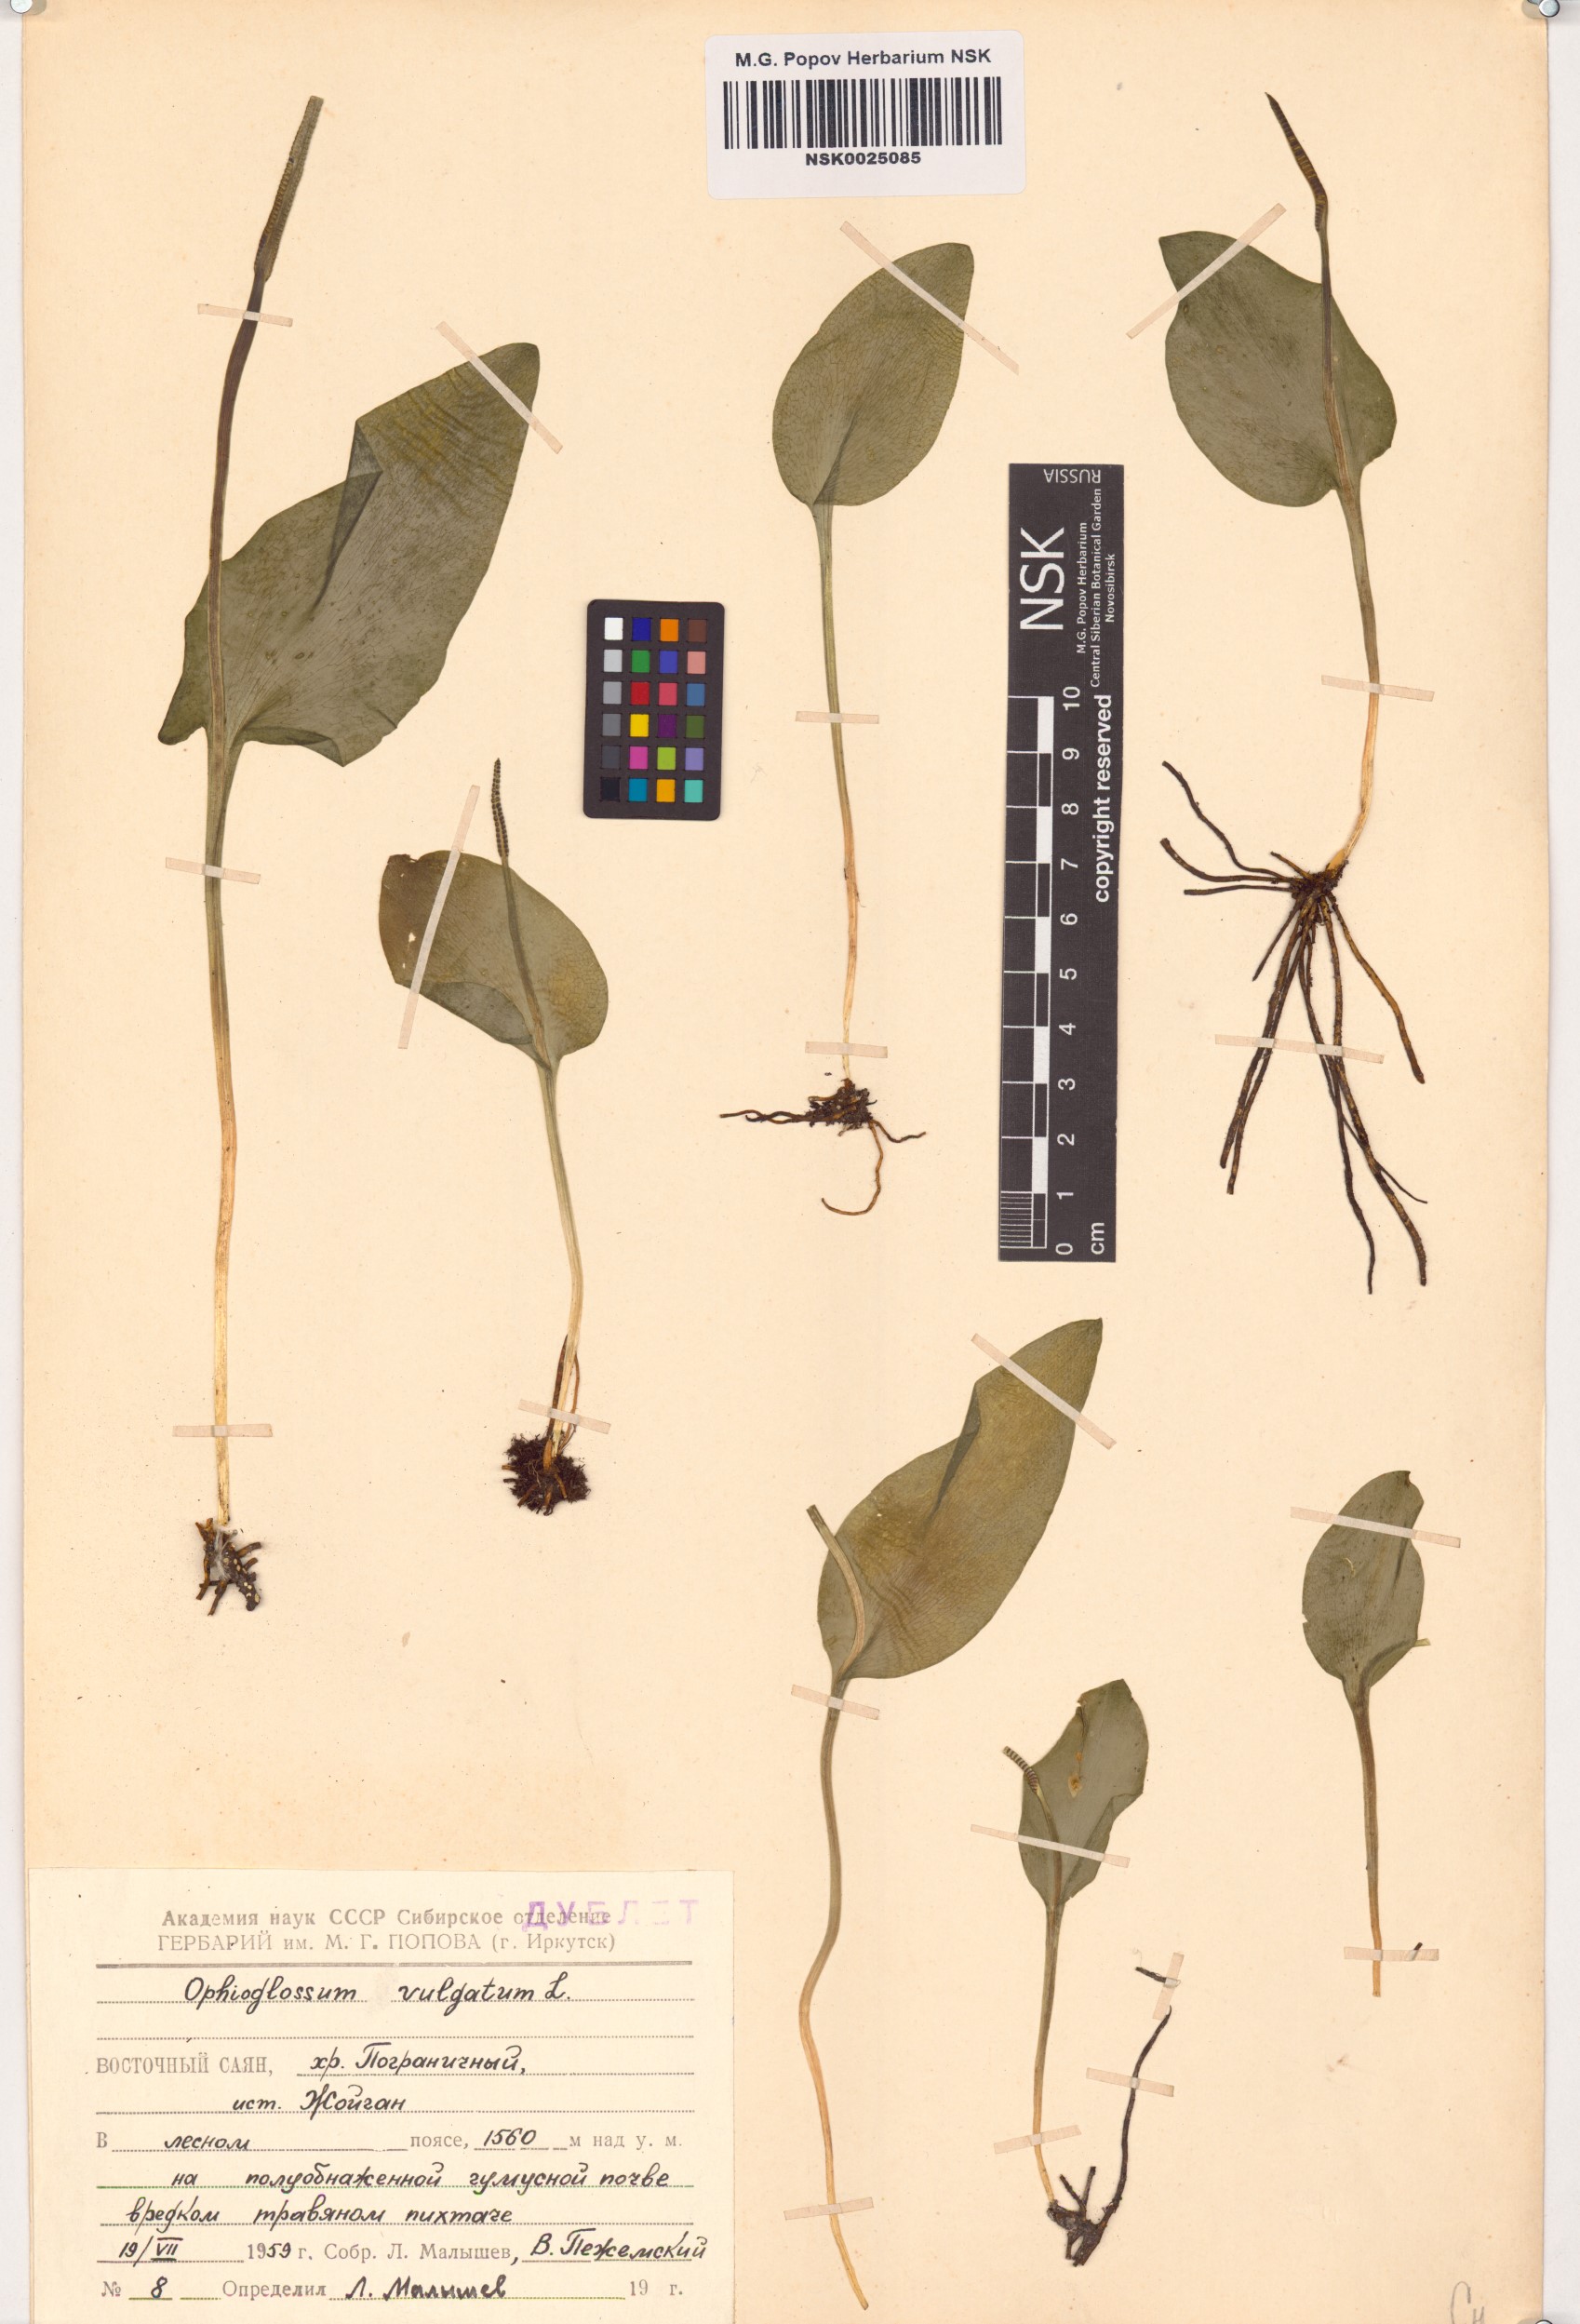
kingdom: Plantae
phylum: Tracheophyta
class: Polypodiopsida
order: Ophioglossales
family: Ophioglossaceae
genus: Ophioglossum
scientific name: Ophioglossum vulgatum
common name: Adder's-tongue
